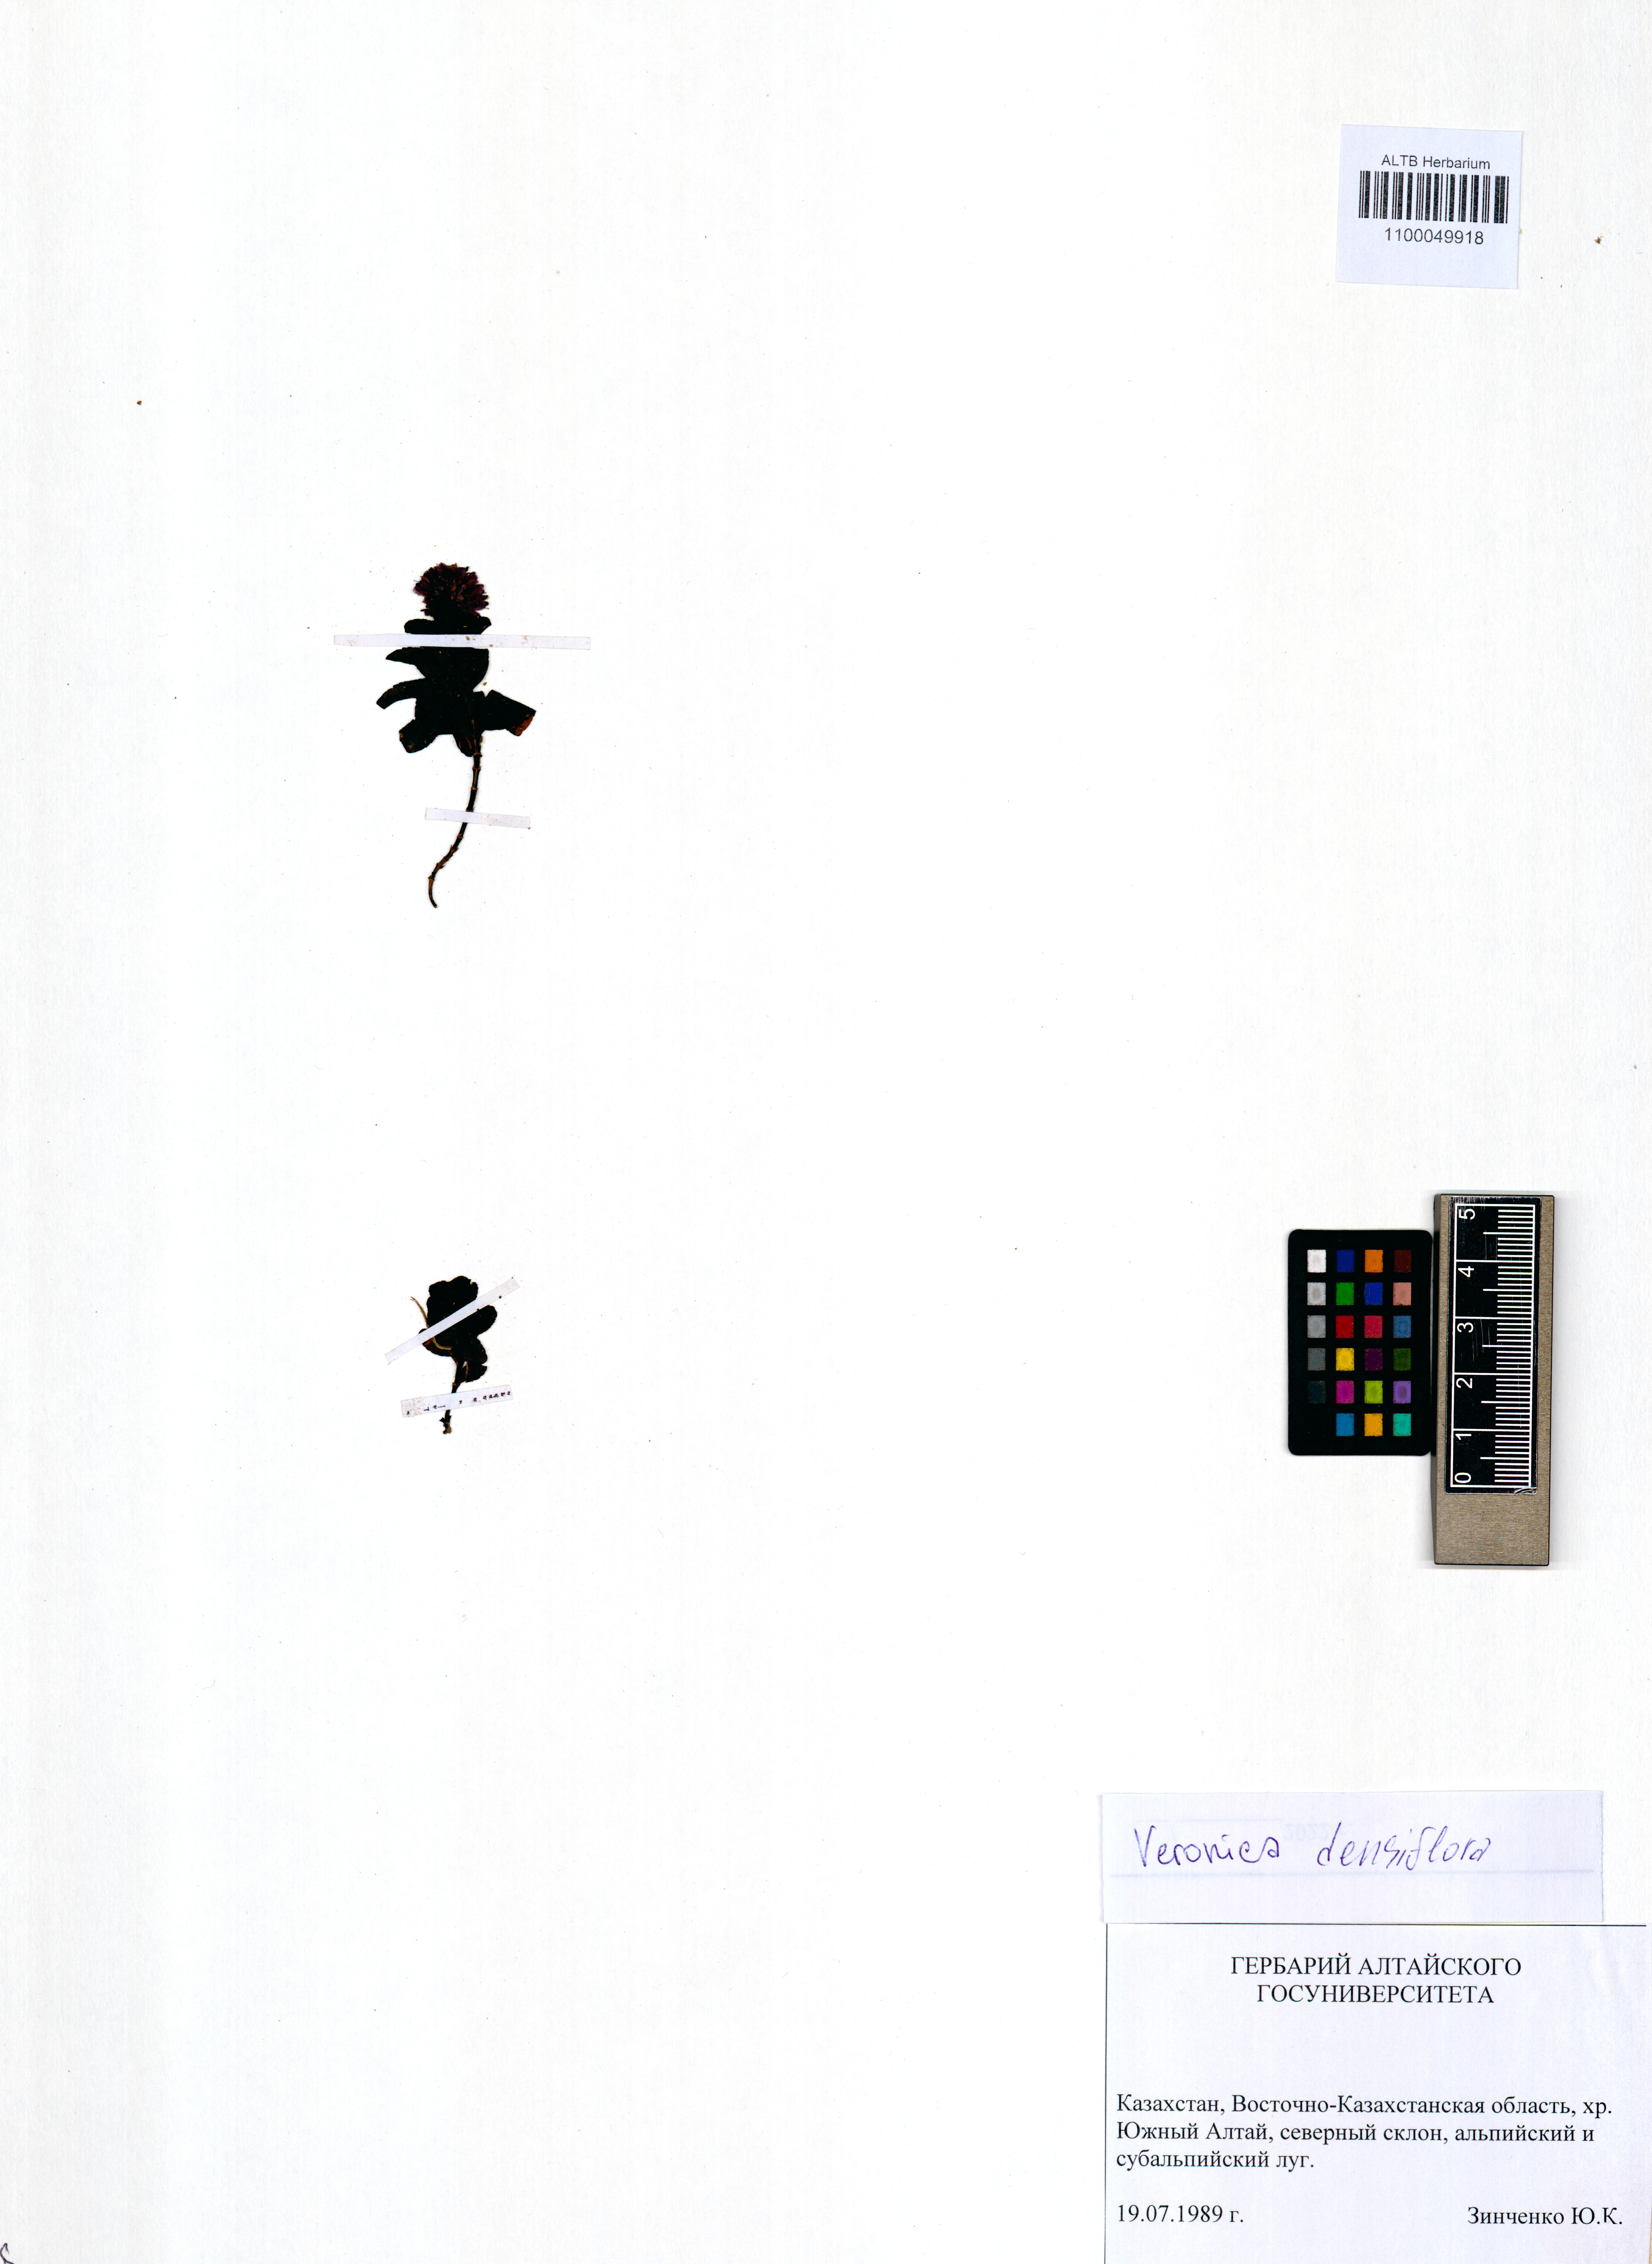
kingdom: Plantae
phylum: Tracheophyta
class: Magnoliopsida
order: Lamiales
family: Plantaginaceae
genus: Veronica
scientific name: Veronica densiflora
